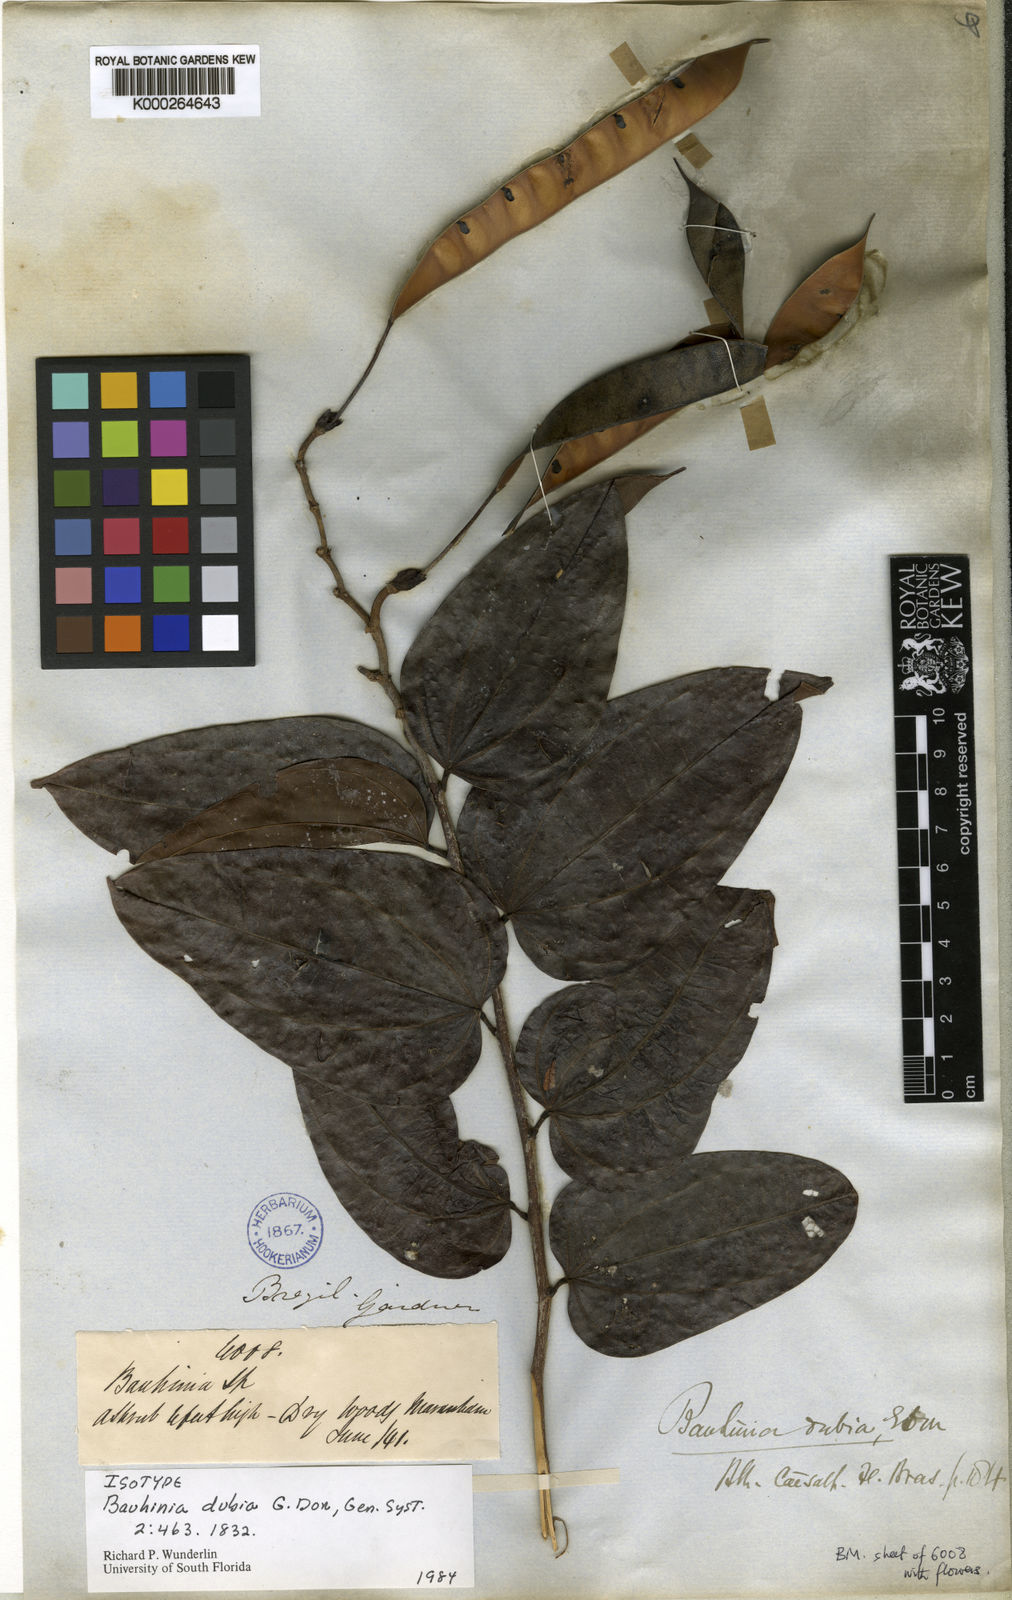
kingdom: Plantae
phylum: Tracheophyta
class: Magnoliopsida
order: Fabales
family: Fabaceae
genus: Bauhinia
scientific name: Bauhinia dubia
